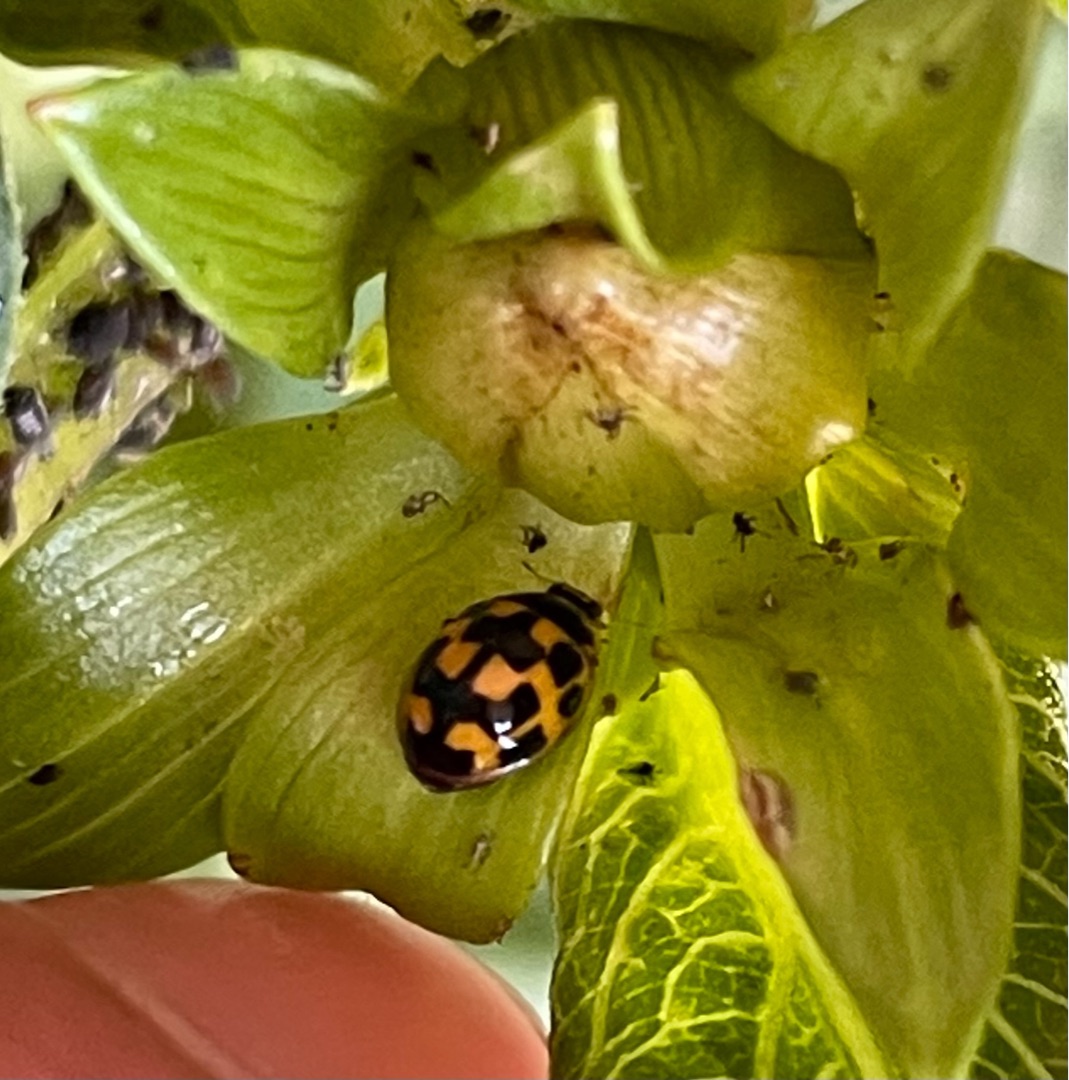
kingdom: Animalia
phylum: Arthropoda
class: Insecta
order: Coleoptera
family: Coccinellidae
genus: Propylaea
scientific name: Propylaea quatuordecimpunctata
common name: Skakbræt
